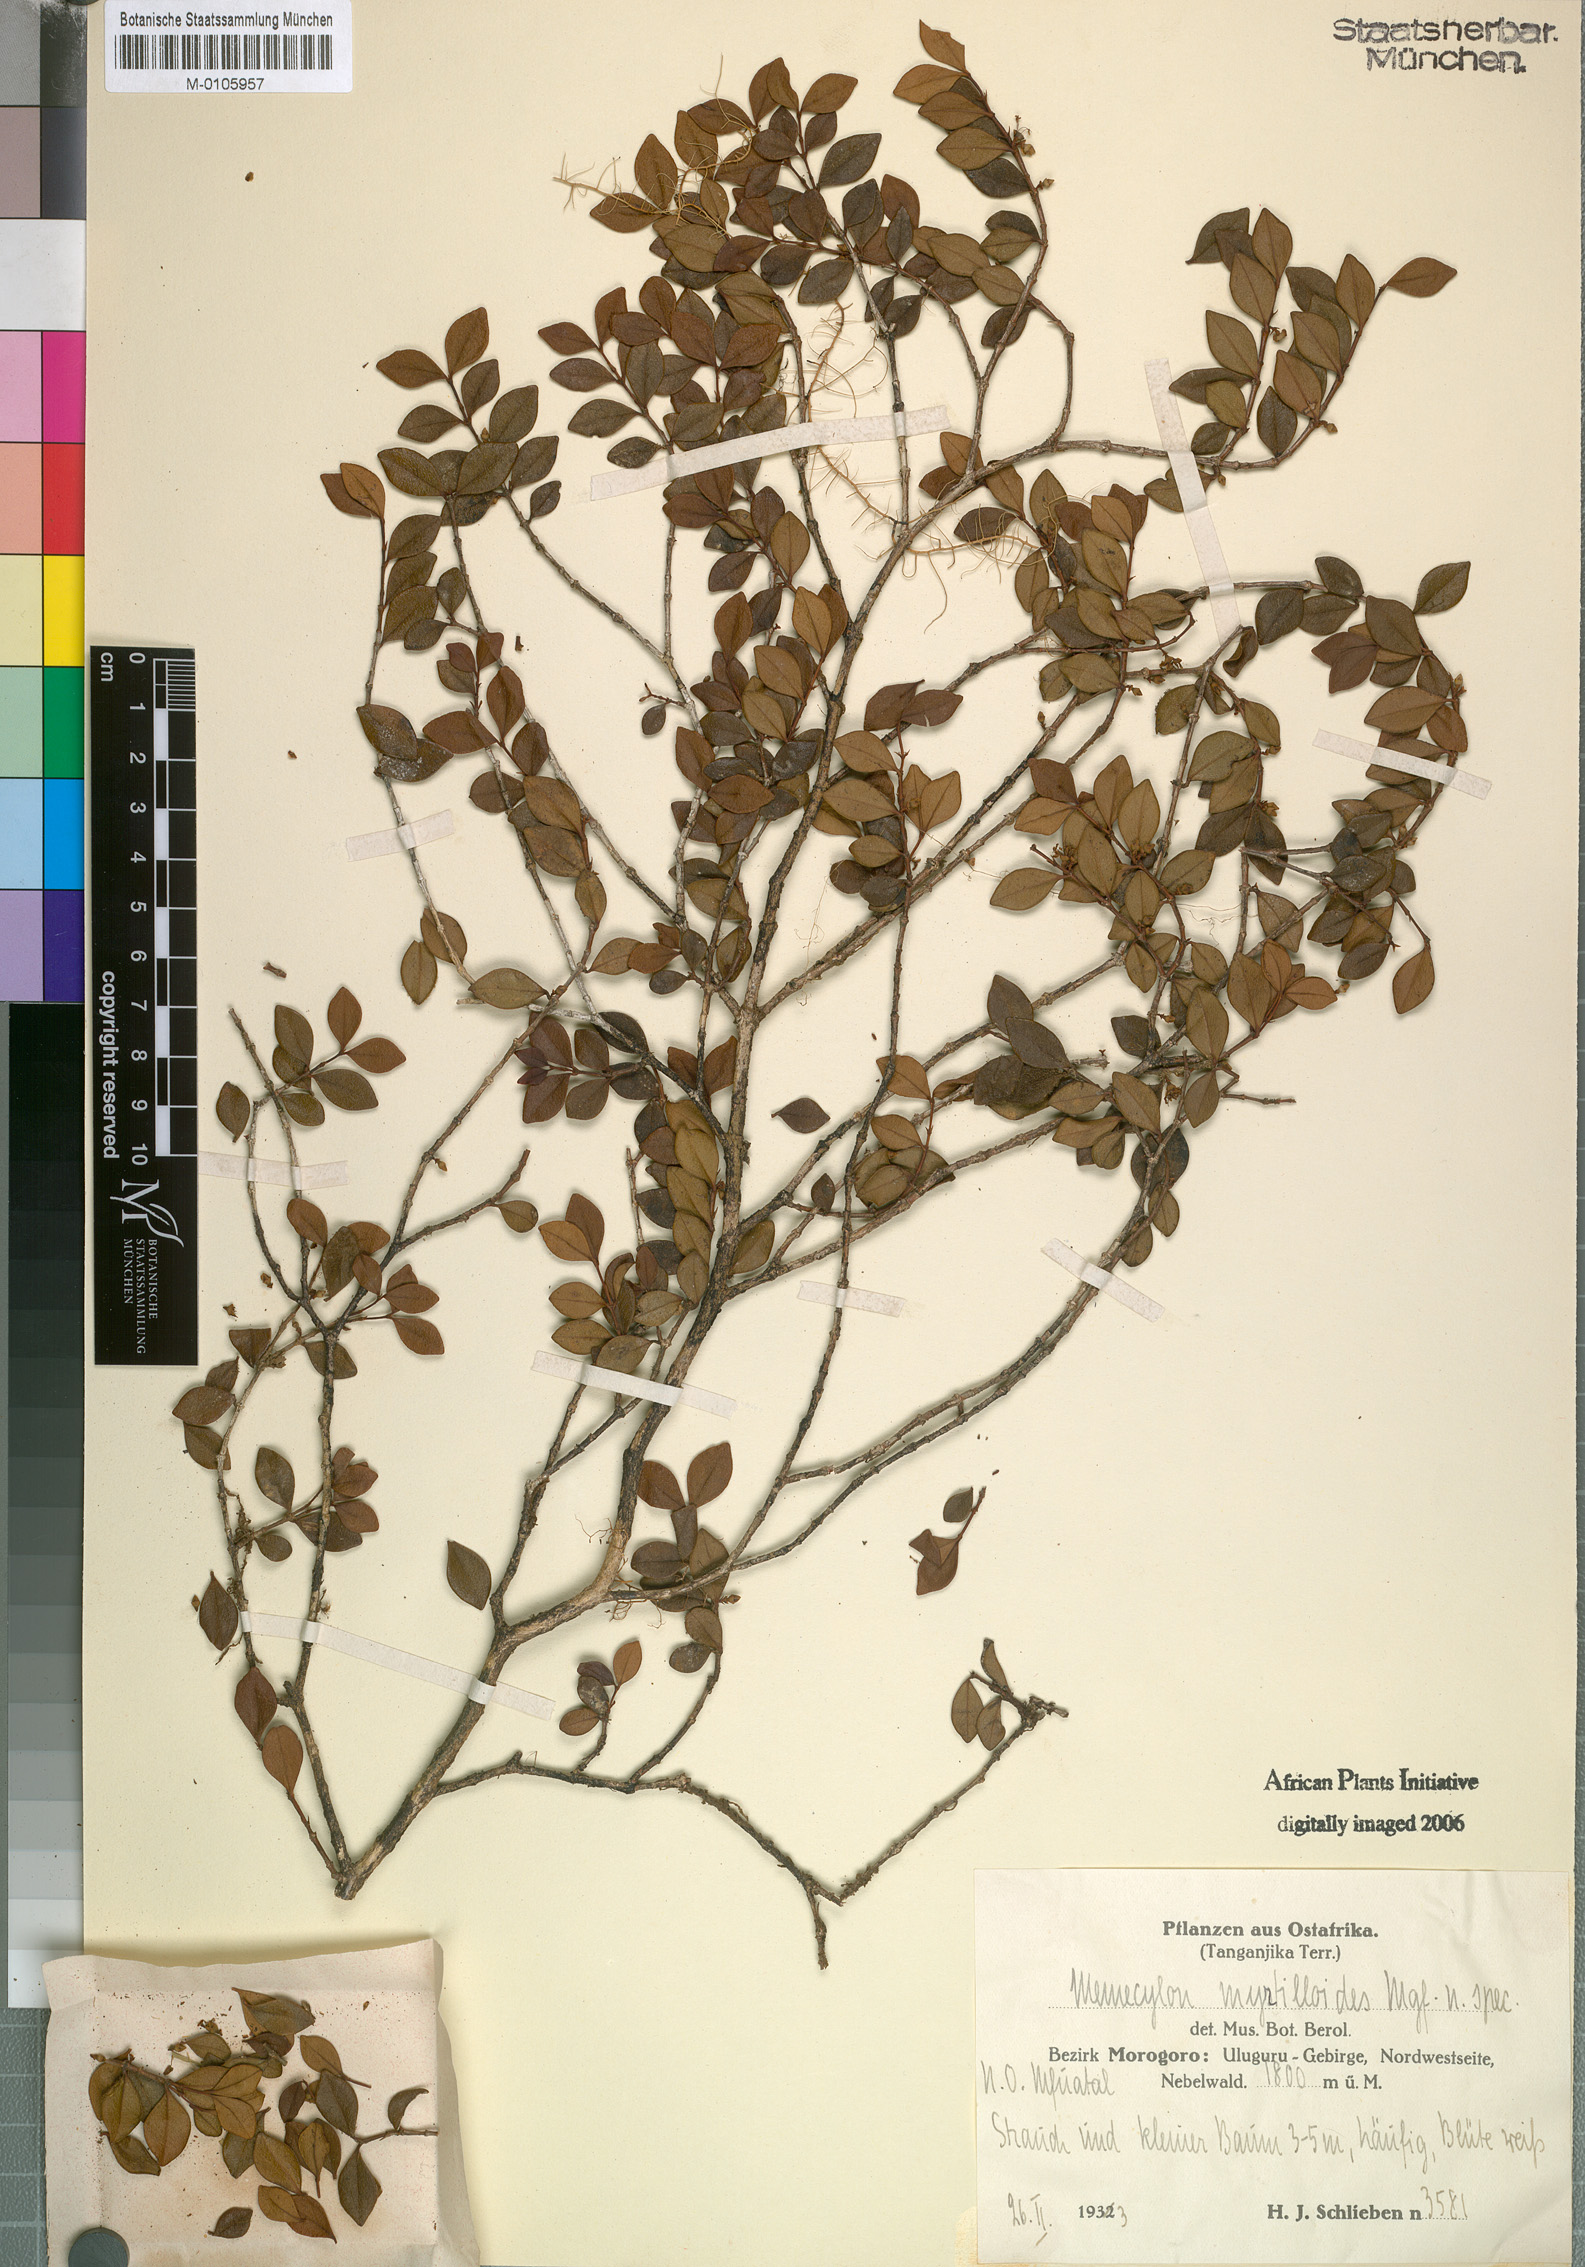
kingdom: Plantae
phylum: Tracheophyta
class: Magnoliopsida
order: Myrtales
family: Melastomataceae
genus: Memecylon
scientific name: Memecylon myrtilloides
